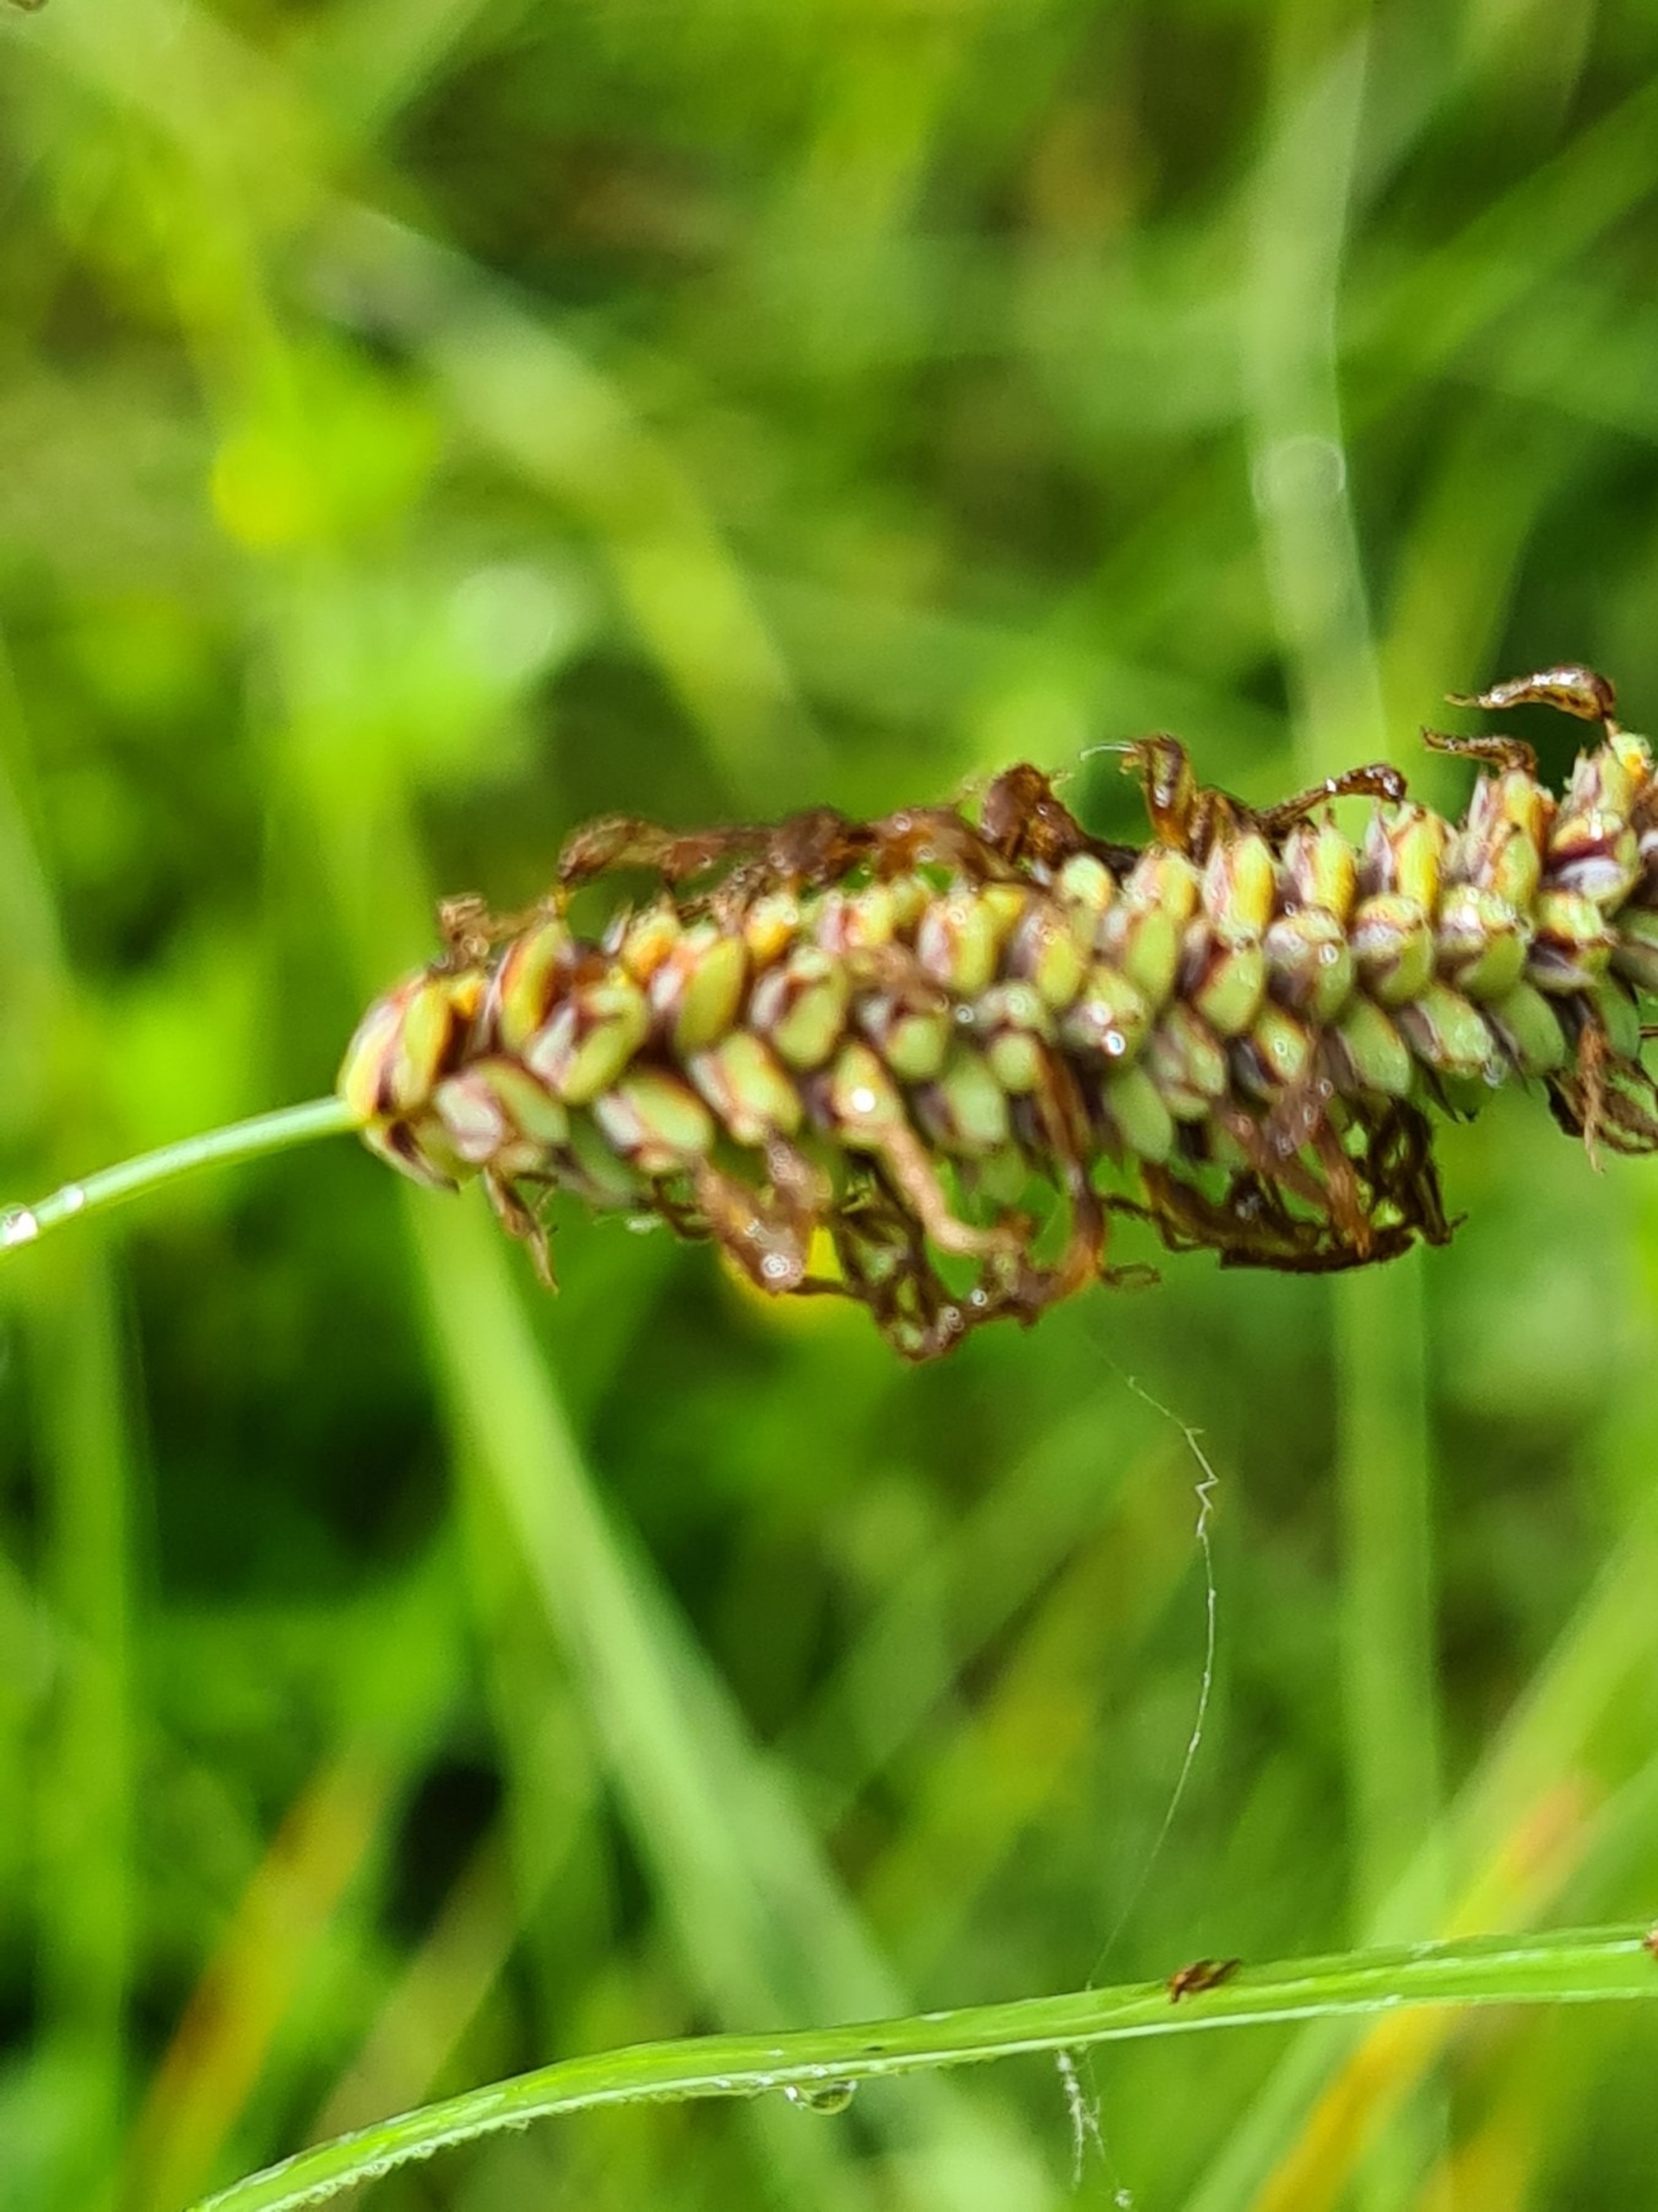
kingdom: Plantae
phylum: Tracheophyta
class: Liliopsida
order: Poales
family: Cyperaceae
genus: Carex
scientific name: Carex flacca
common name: Blågrøn star
